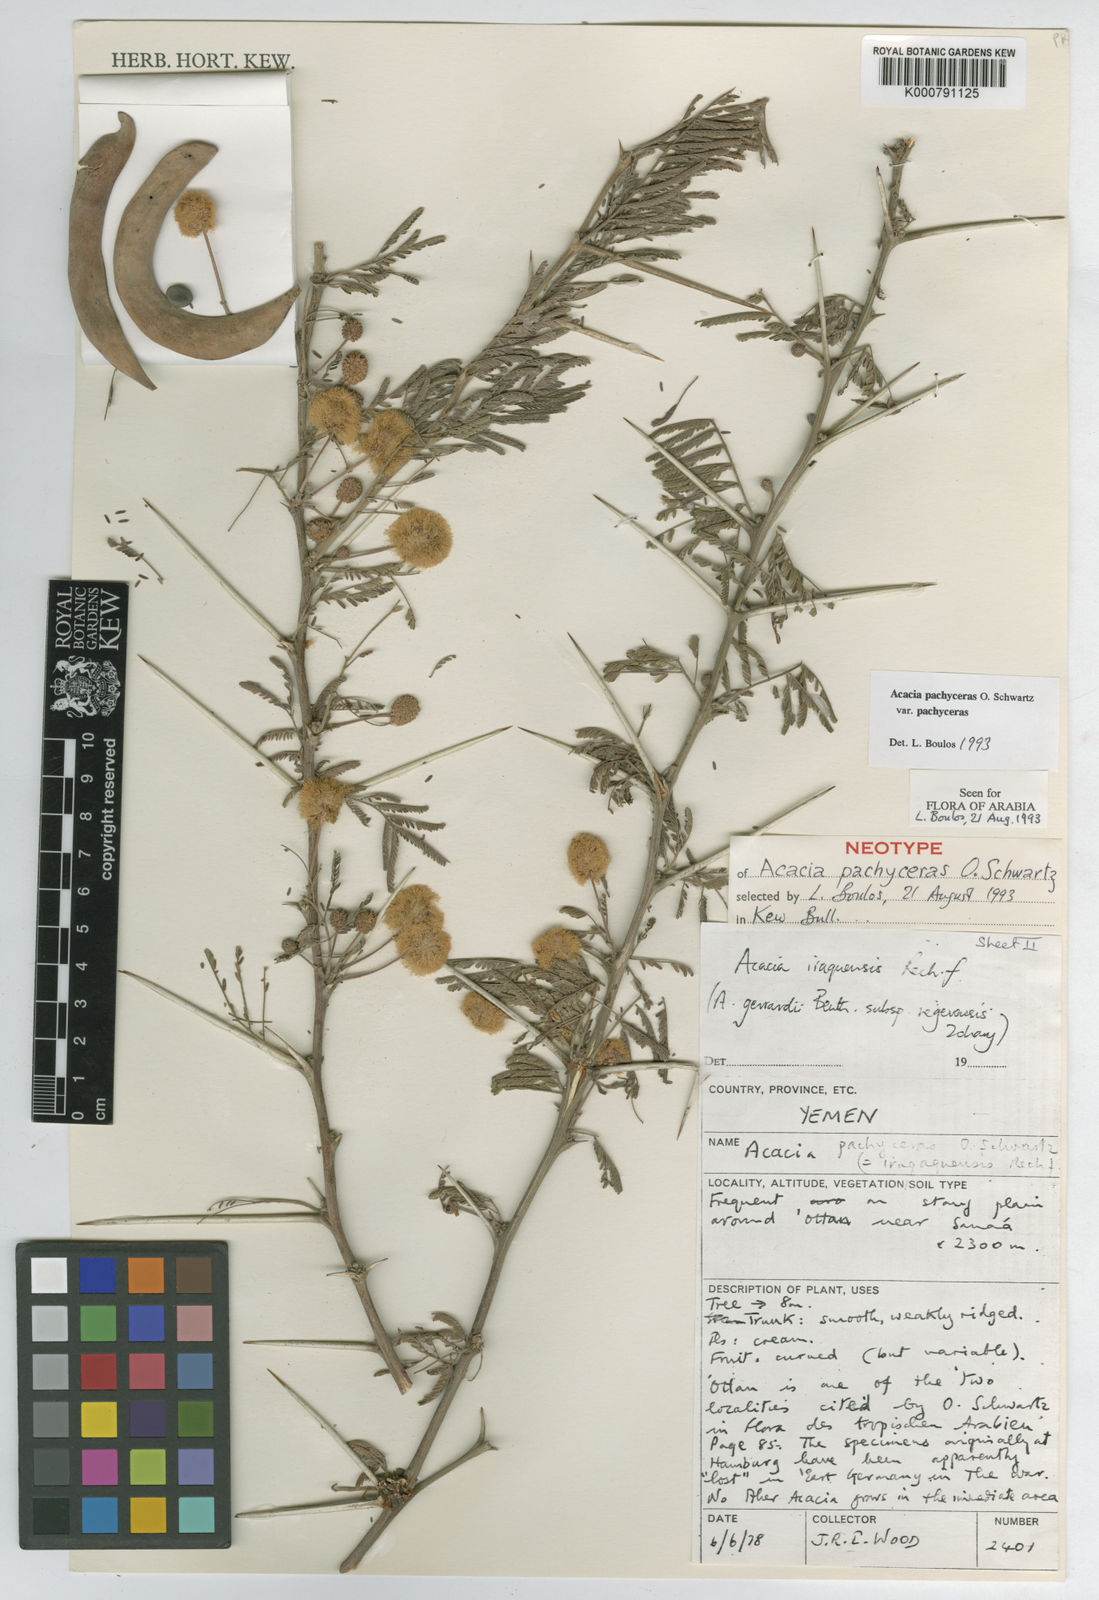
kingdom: Plantae
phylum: Tracheophyta
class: Magnoliopsida
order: Fabales
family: Fabaceae
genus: Acacia
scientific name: Acacia pachyceras
